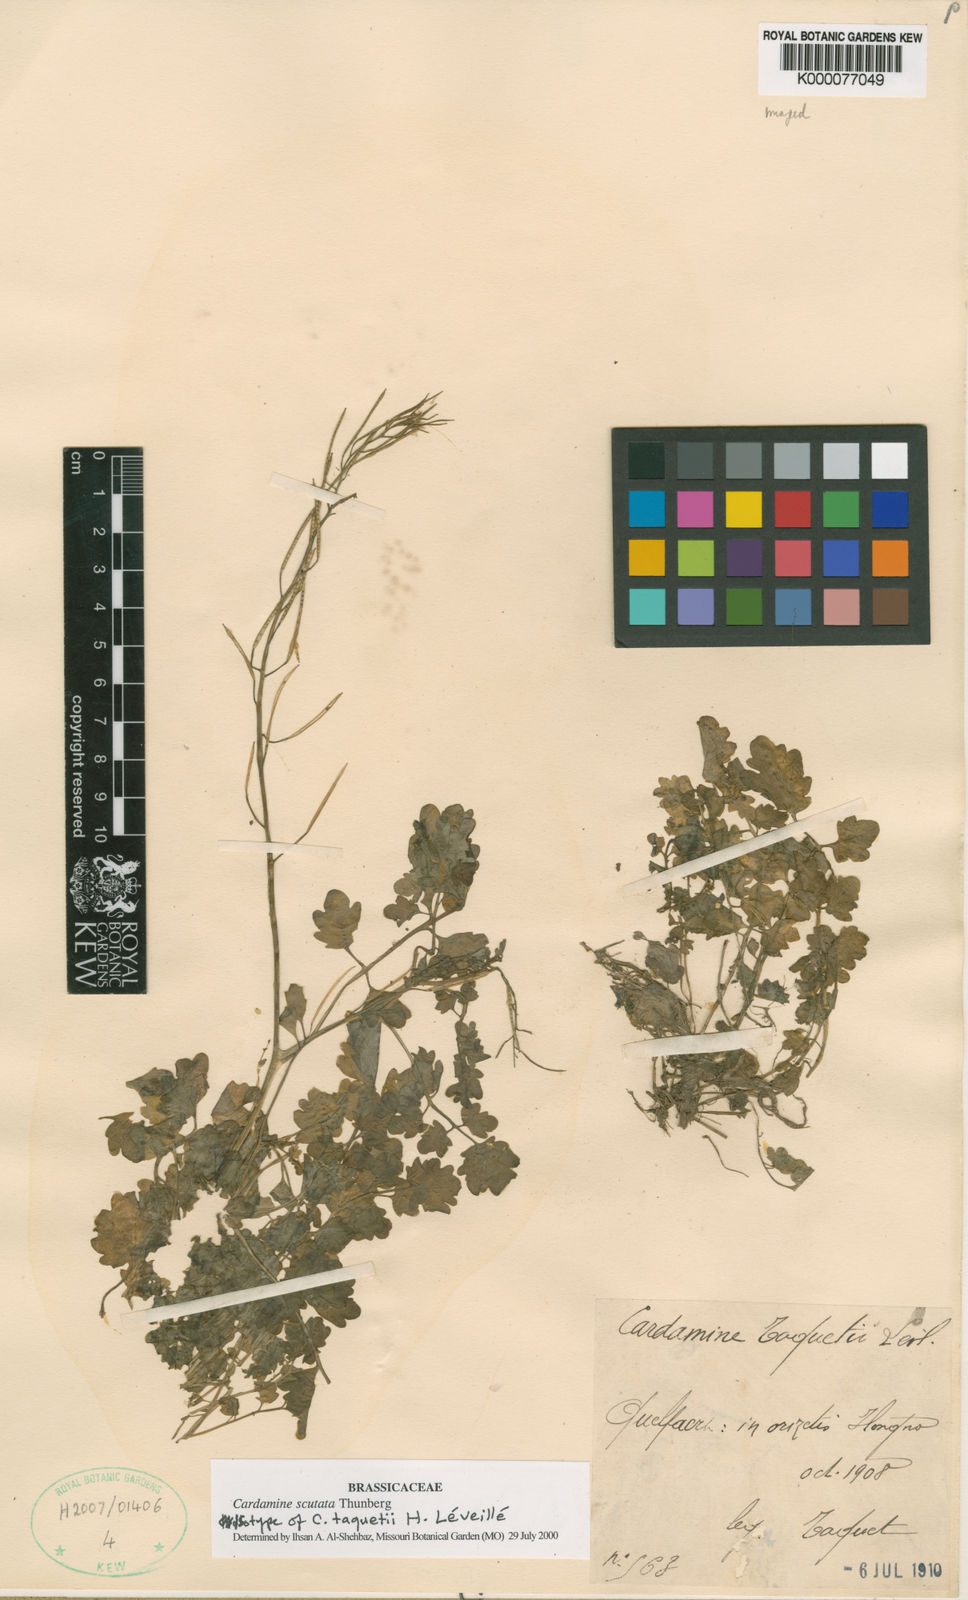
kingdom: Plantae
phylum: Tracheophyta
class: Magnoliopsida
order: Brassicales
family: Brassicaceae
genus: Cardamine
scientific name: Cardamine scutata
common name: Japanese bittercress
